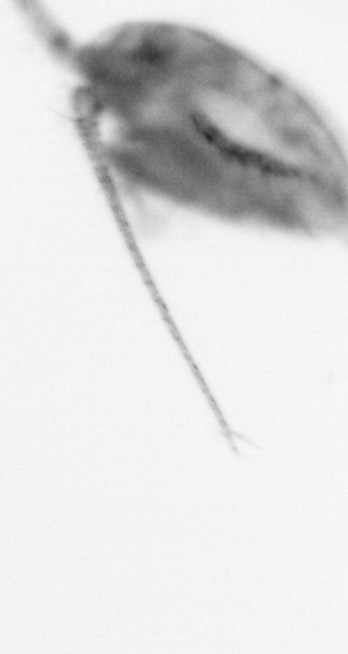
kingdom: Animalia
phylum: Arthropoda
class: Copepoda
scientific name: Copepoda
